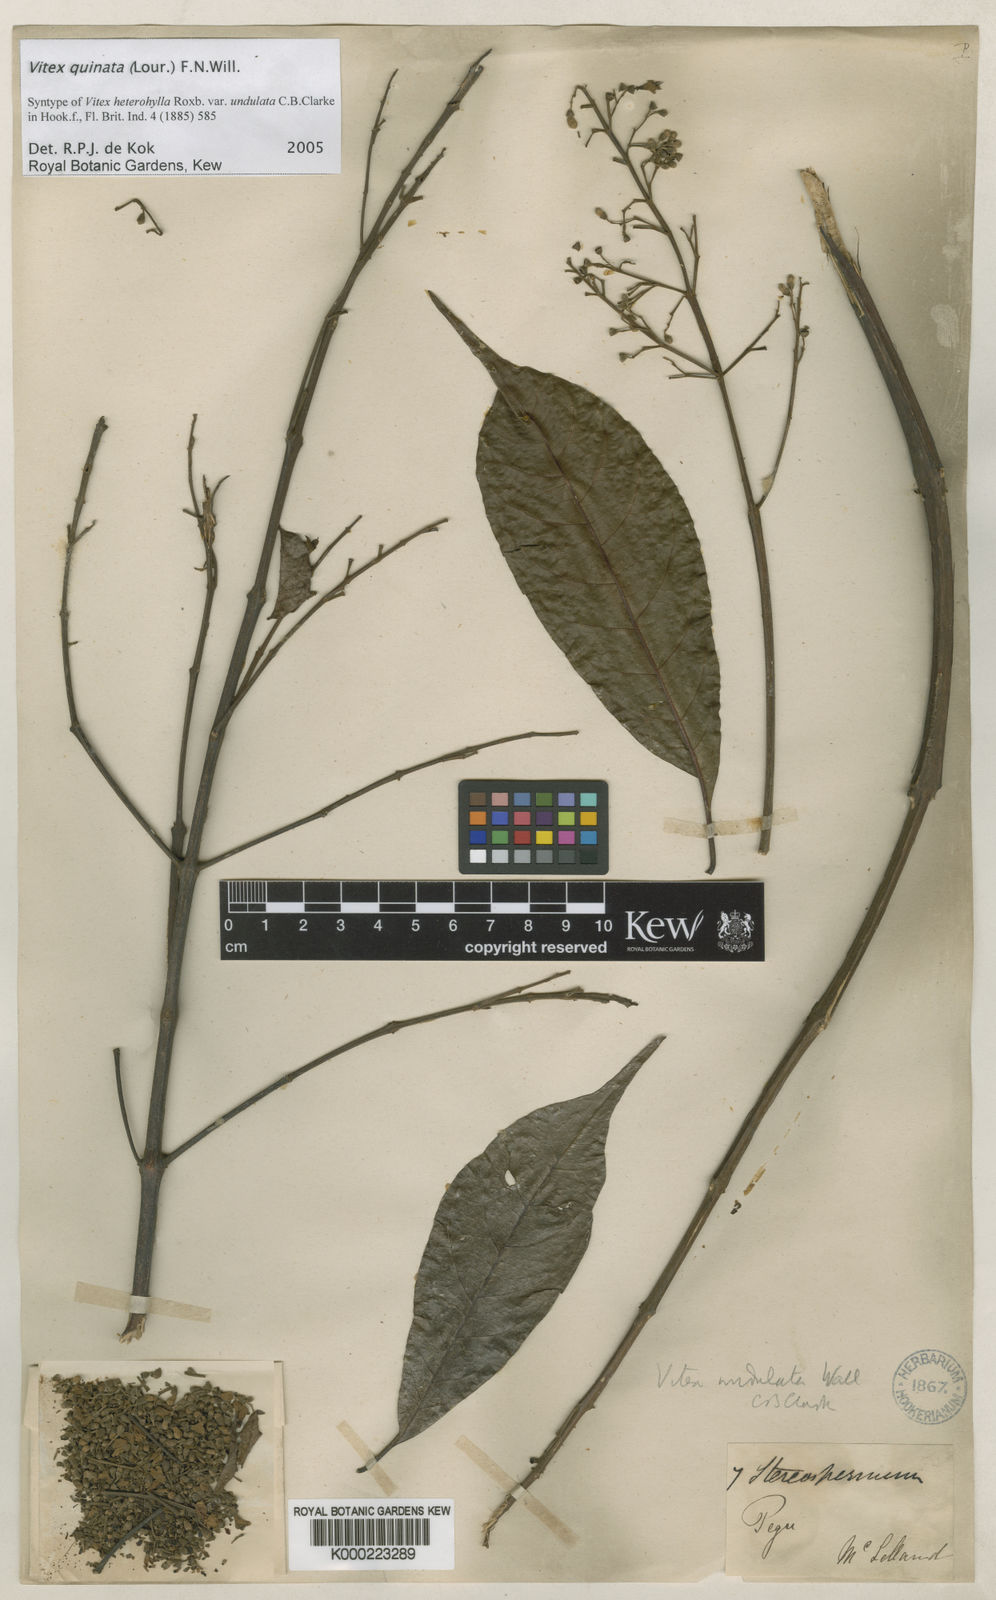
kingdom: Plantae
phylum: Tracheophyta
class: Magnoliopsida
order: Lamiales
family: Lamiaceae
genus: Vitex
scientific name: Vitex quinata
